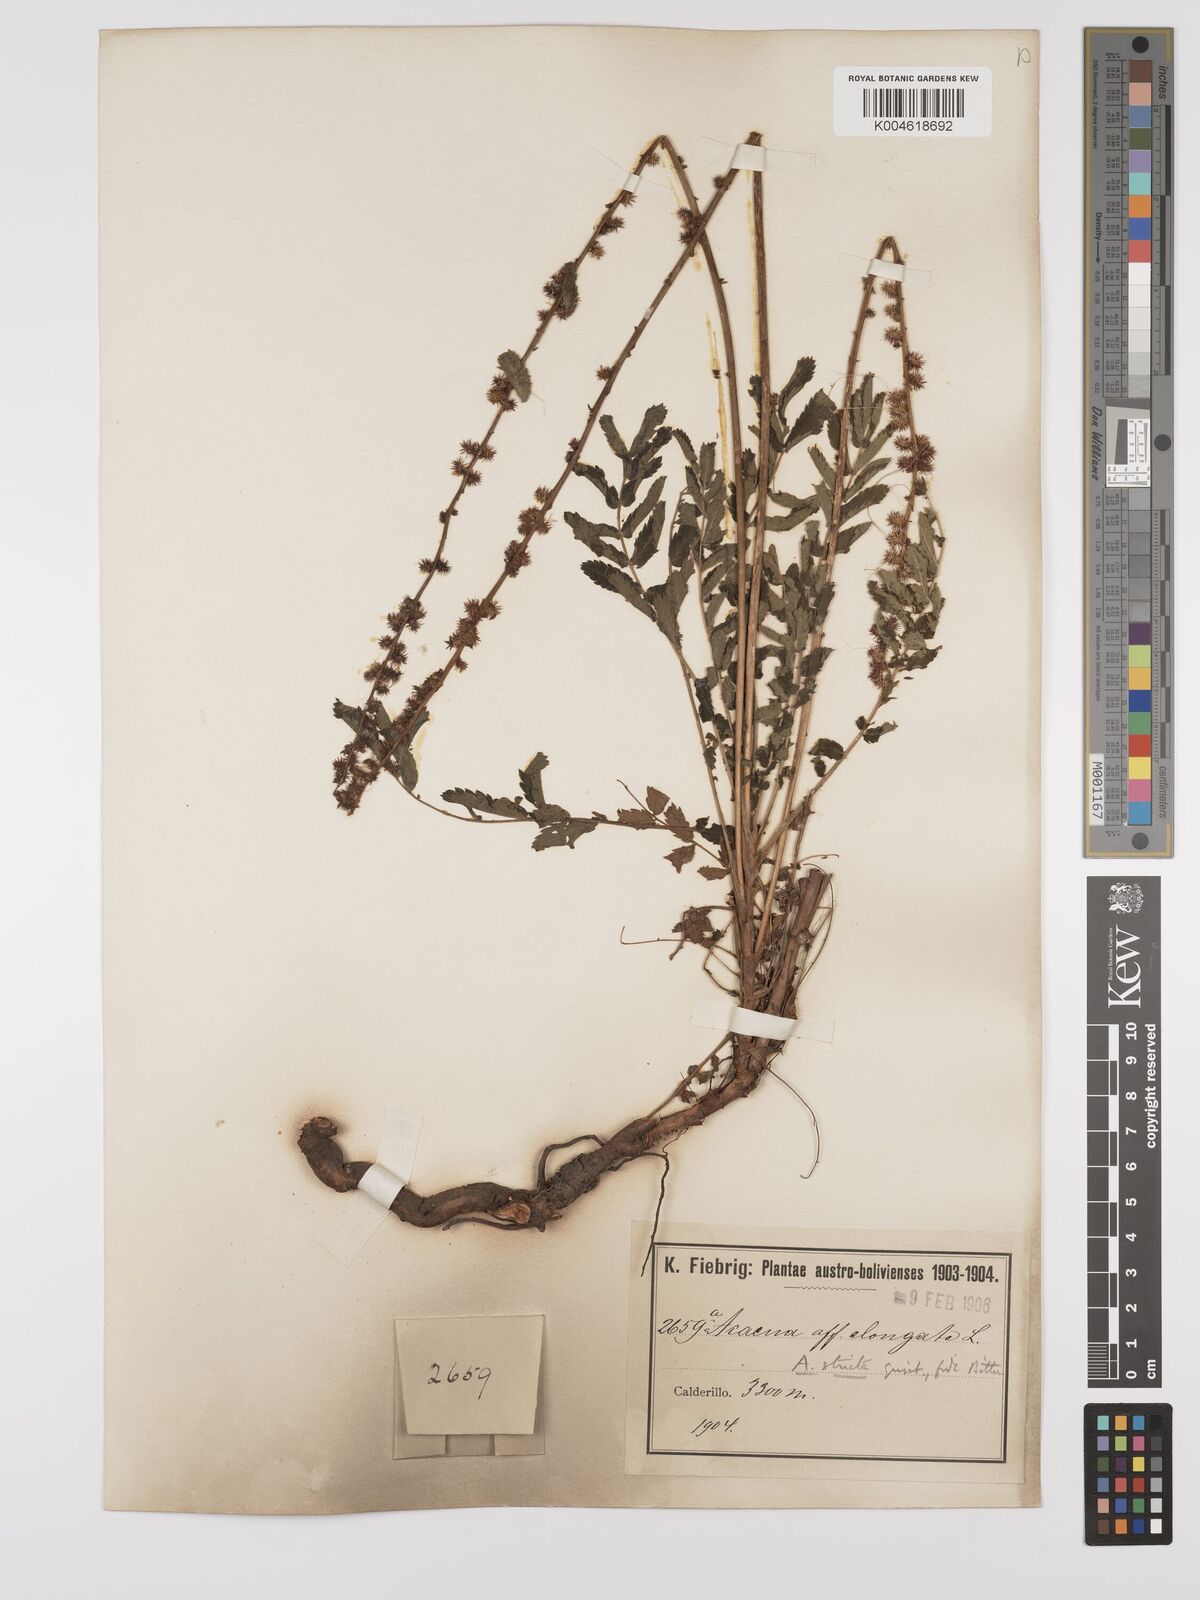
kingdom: Plantae
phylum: Tracheophyta
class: Magnoliopsida
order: Rosales
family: Rosaceae
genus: Acaena
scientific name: Acaena stricta
